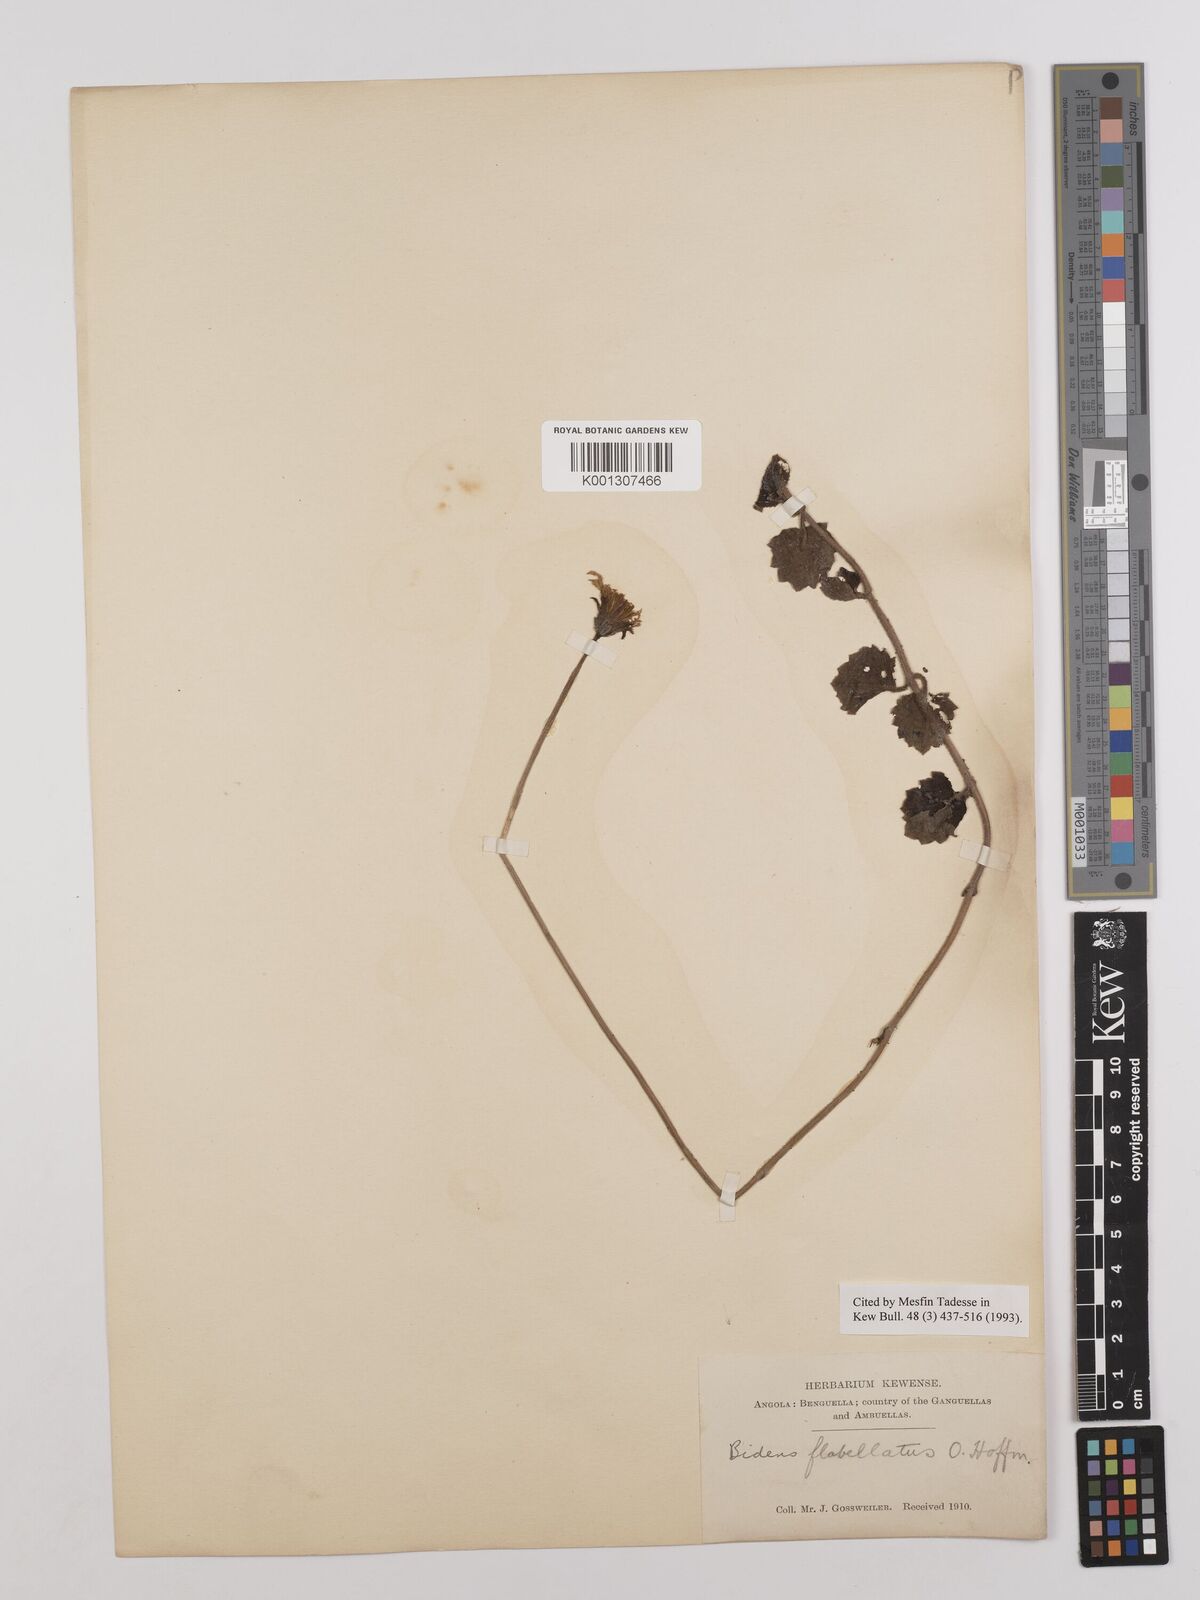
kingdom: Plantae
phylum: Tracheophyta
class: Magnoliopsida
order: Asterales
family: Asteraceae
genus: Bidens
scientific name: Bidens flabellata
